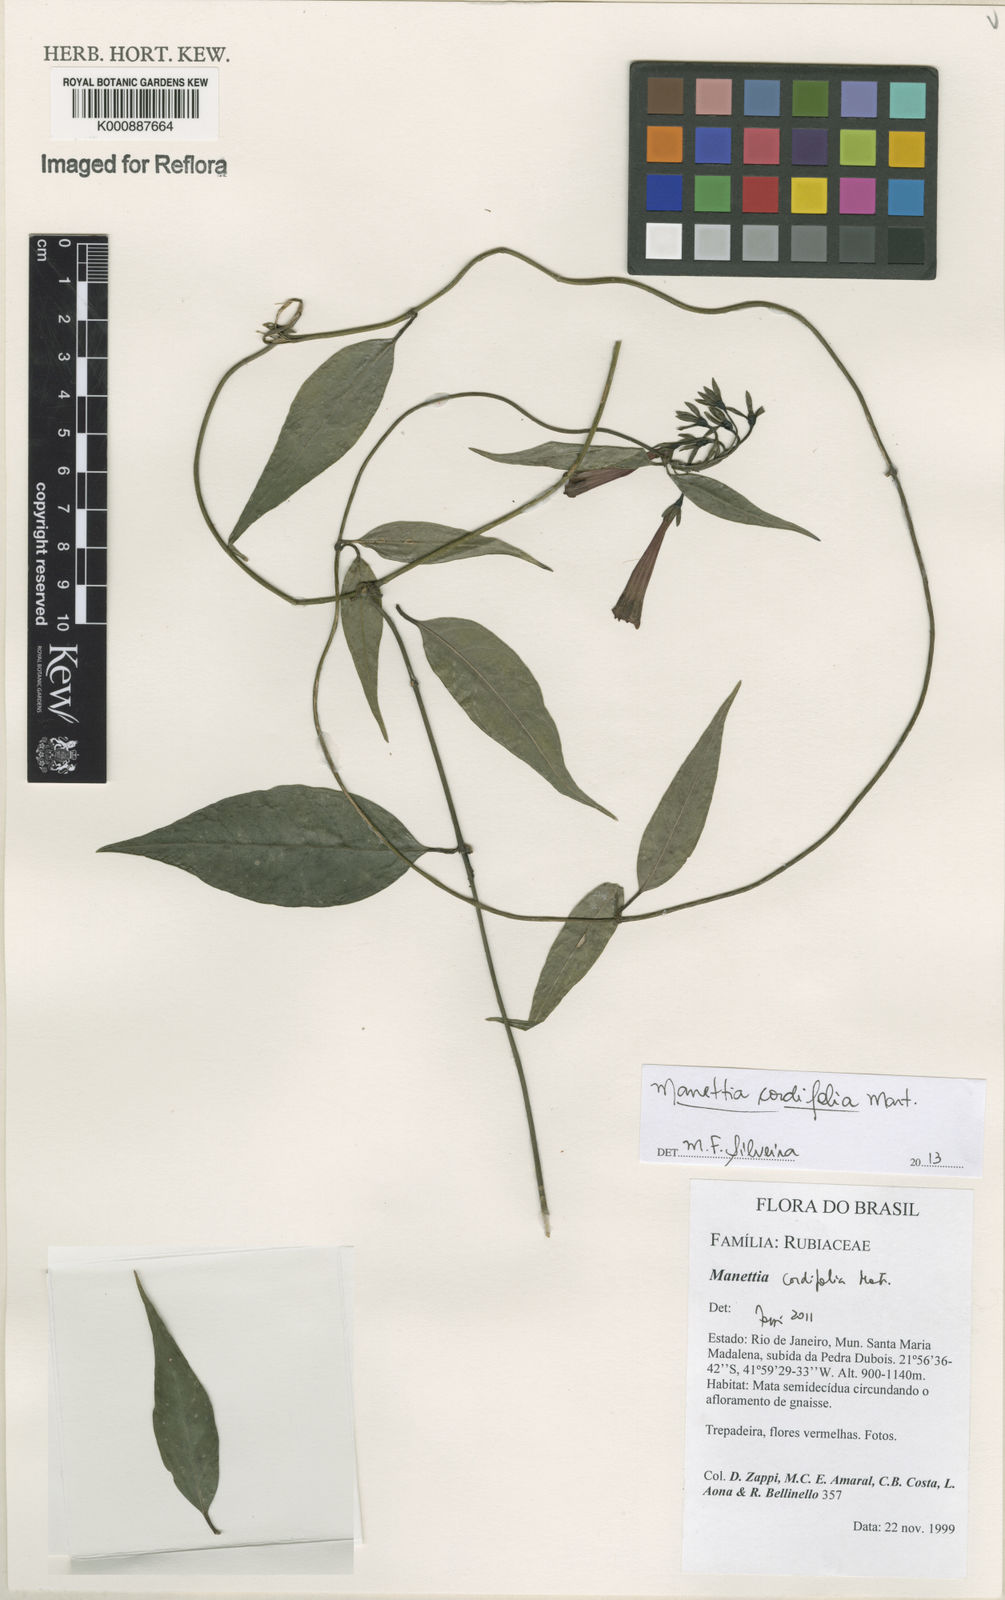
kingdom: Plantae
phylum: Tracheophyta
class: Magnoliopsida
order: Gentianales
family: Rubiaceae
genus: Manettia
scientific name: Manettia cordifolia
